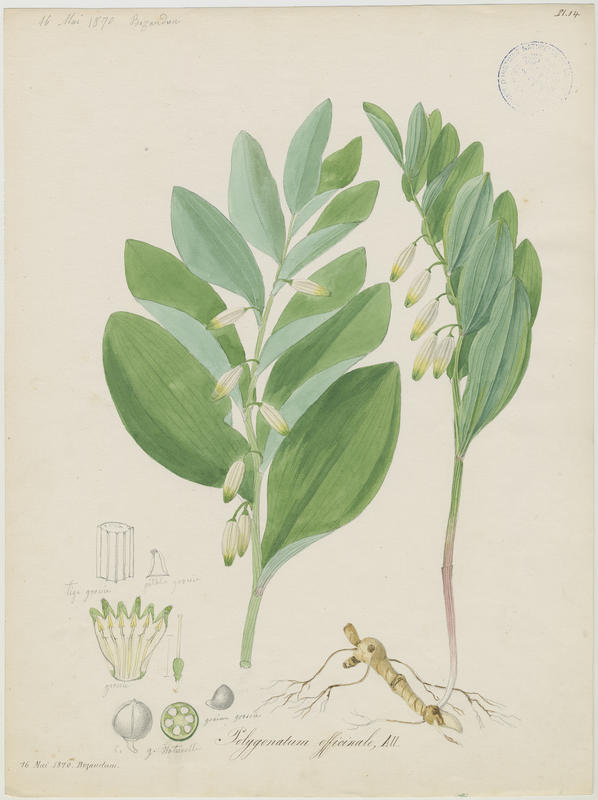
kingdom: Plantae
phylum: Tracheophyta
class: Liliopsida
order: Asparagales
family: Asparagaceae
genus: Polygonatum
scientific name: Polygonatum odoratum
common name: Angular solomon's-seal
